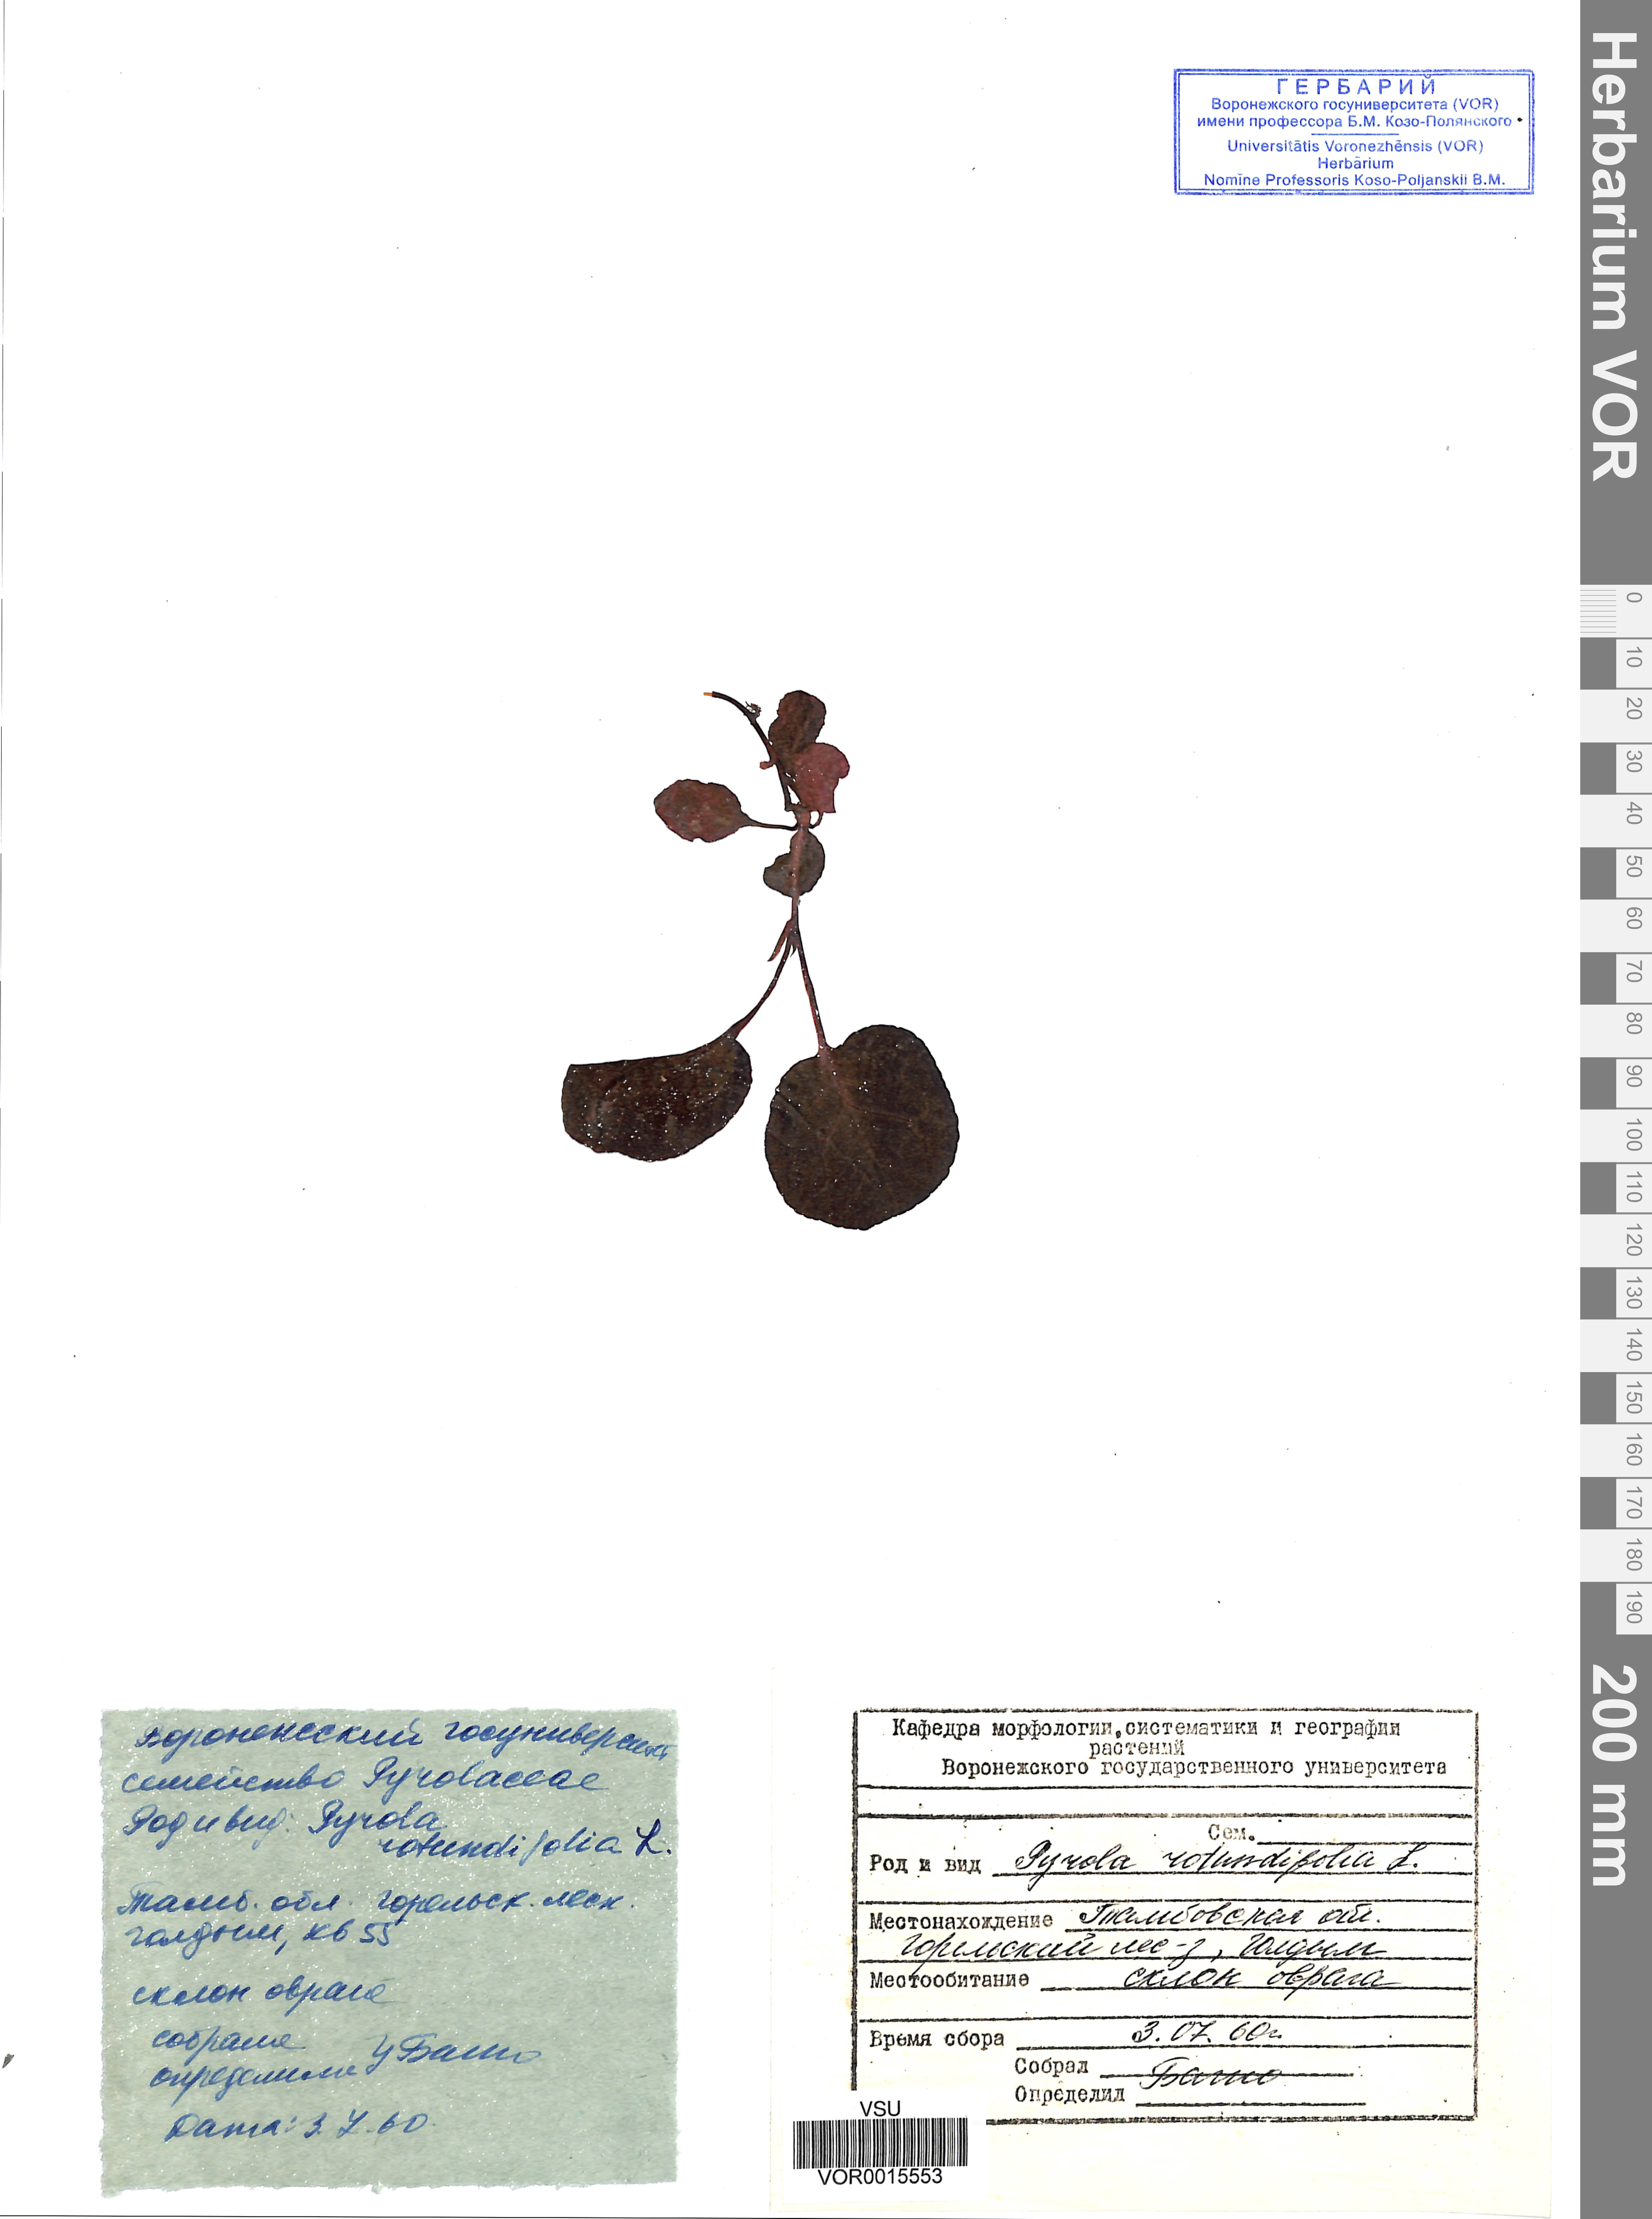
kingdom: Plantae
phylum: Tracheophyta
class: Magnoliopsida
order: Ericales
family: Ericaceae
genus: Pyrola
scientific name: Pyrola rotundifolia
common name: Round-leaved wintergreen
